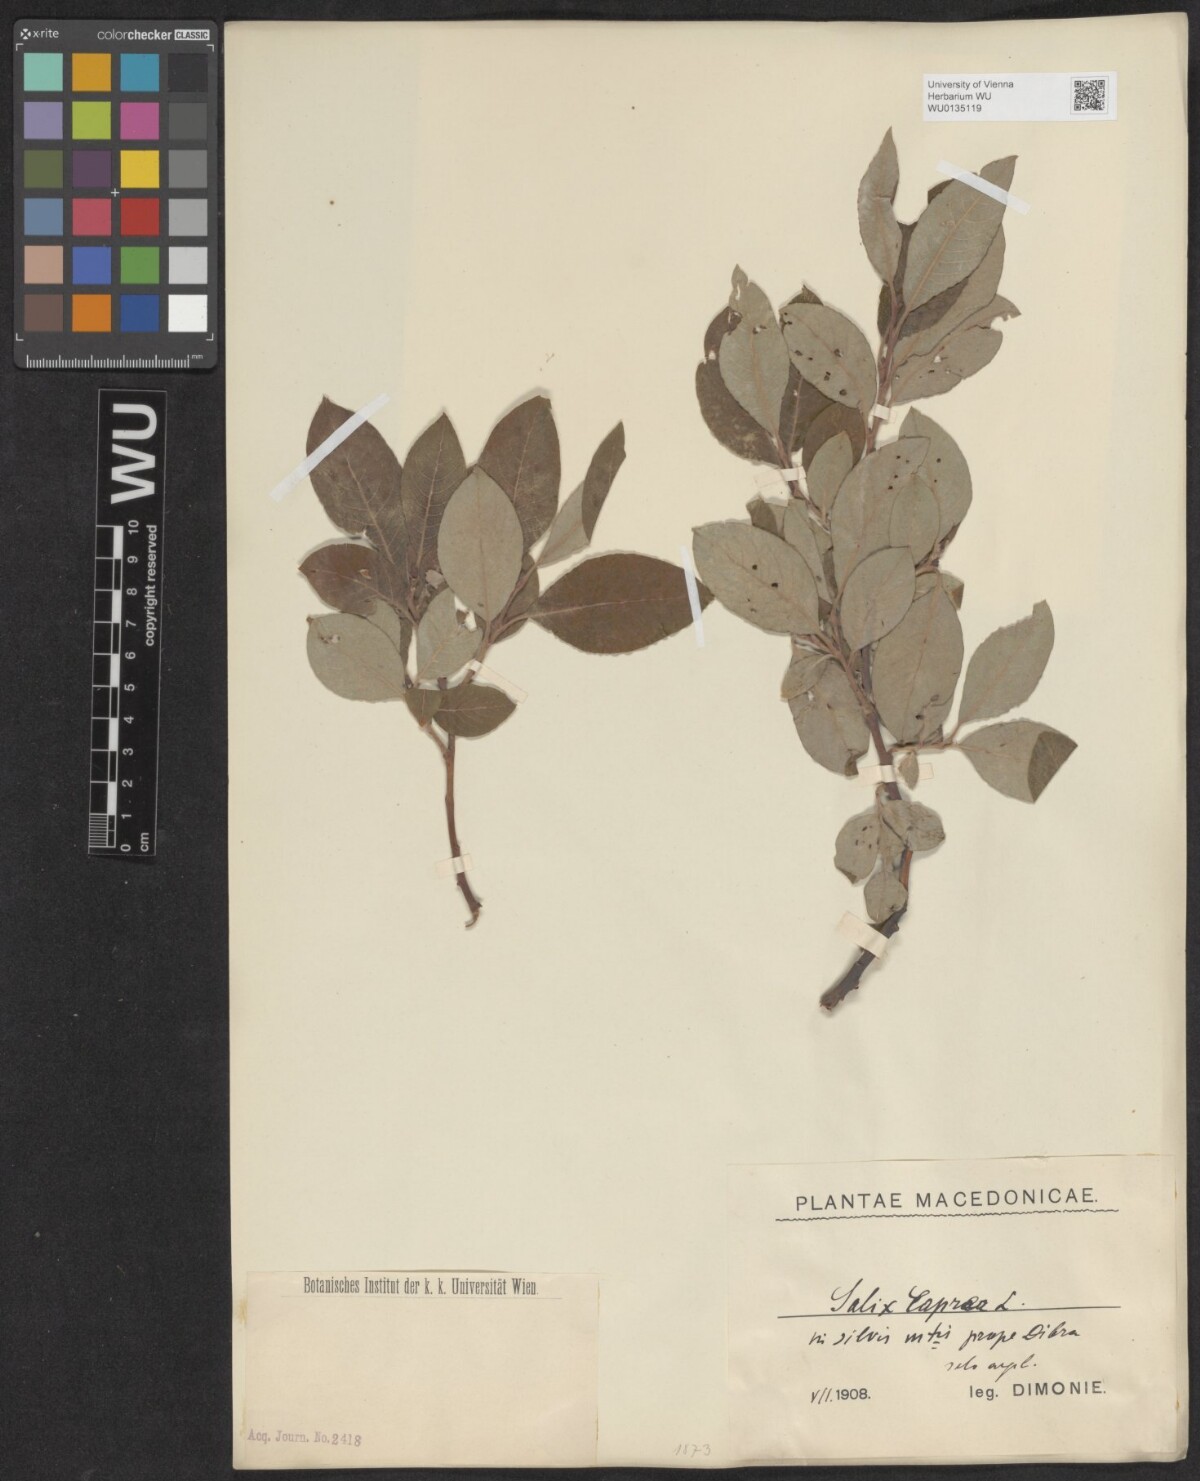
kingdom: Plantae
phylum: Tracheophyta
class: Magnoliopsida
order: Malpighiales
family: Salicaceae
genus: Salix
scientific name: Salix caprea
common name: Goat willow
